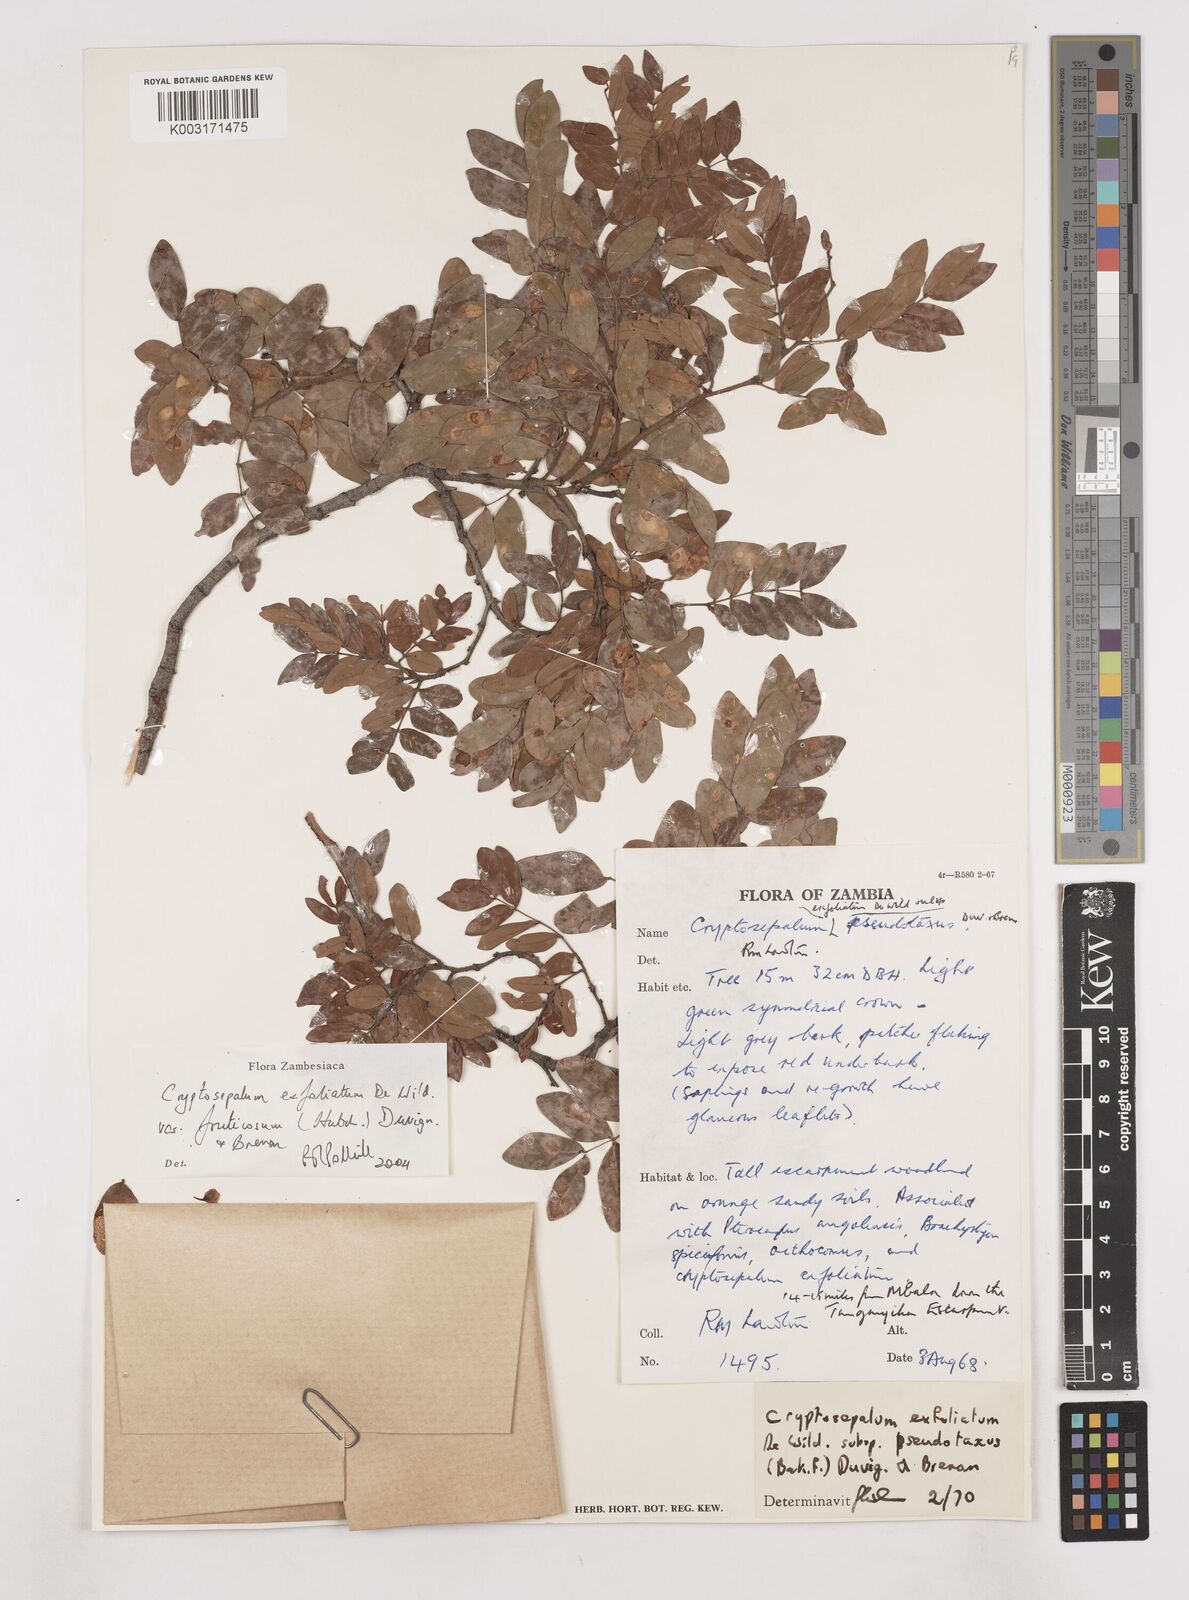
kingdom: Plantae
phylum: Tracheophyta
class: Magnoliopsida
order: Fabales
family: Fabaceae
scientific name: Fabaceae
